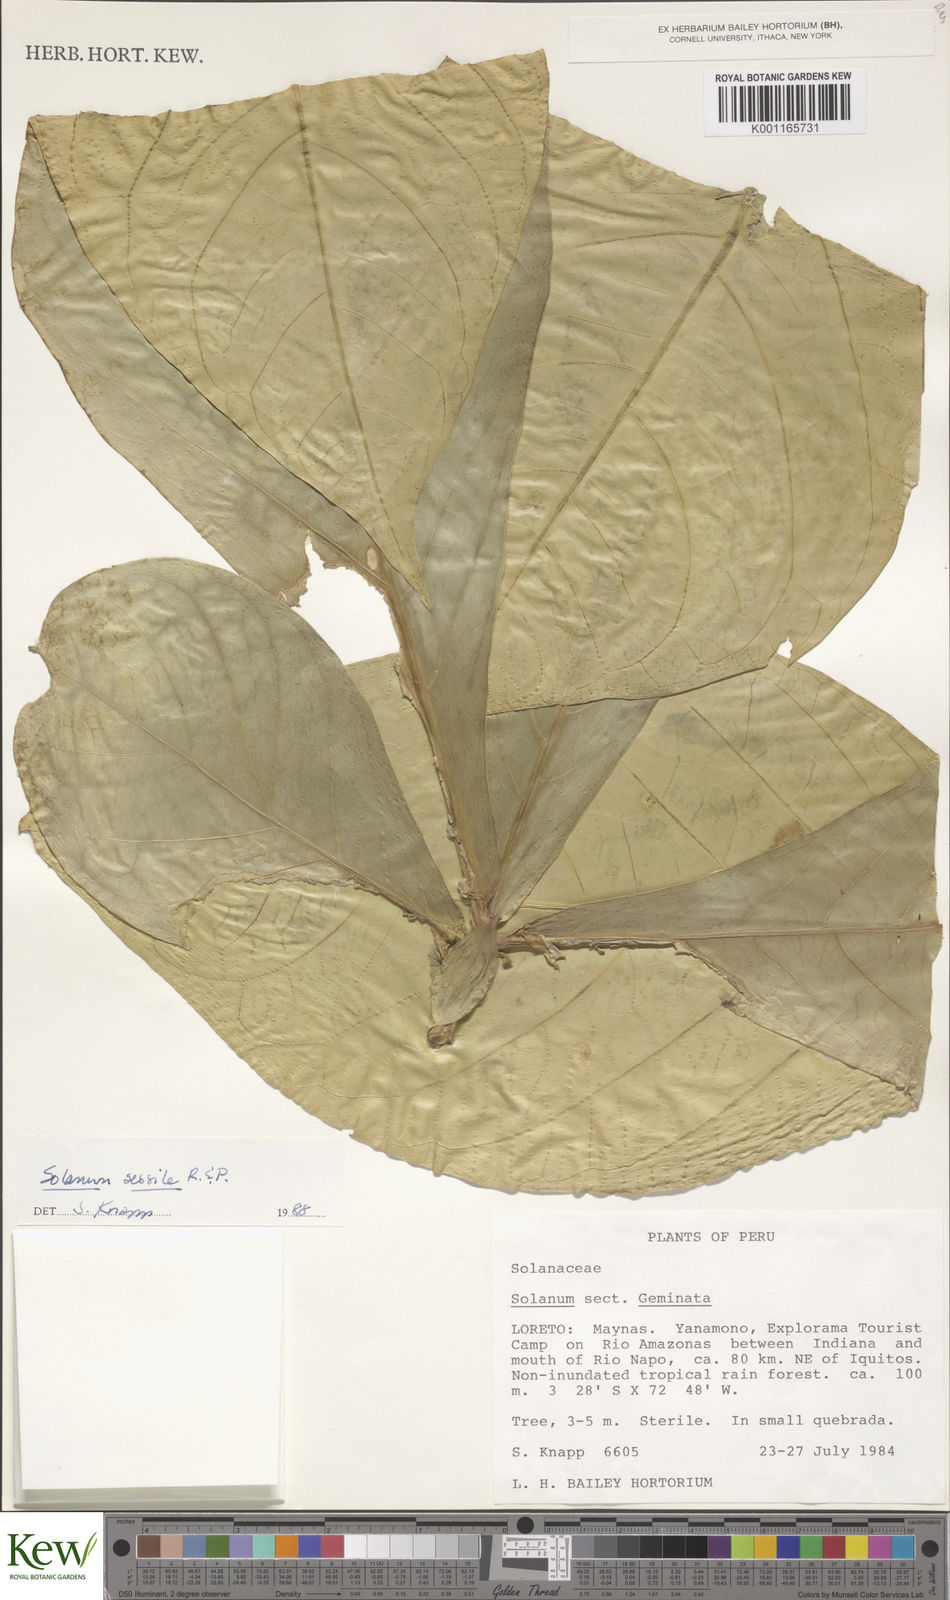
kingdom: Plantae
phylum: Tracheophyta
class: Magnoliopsida
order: Solanales
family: Solanaceae
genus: Solanum
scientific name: Solanum sessile
